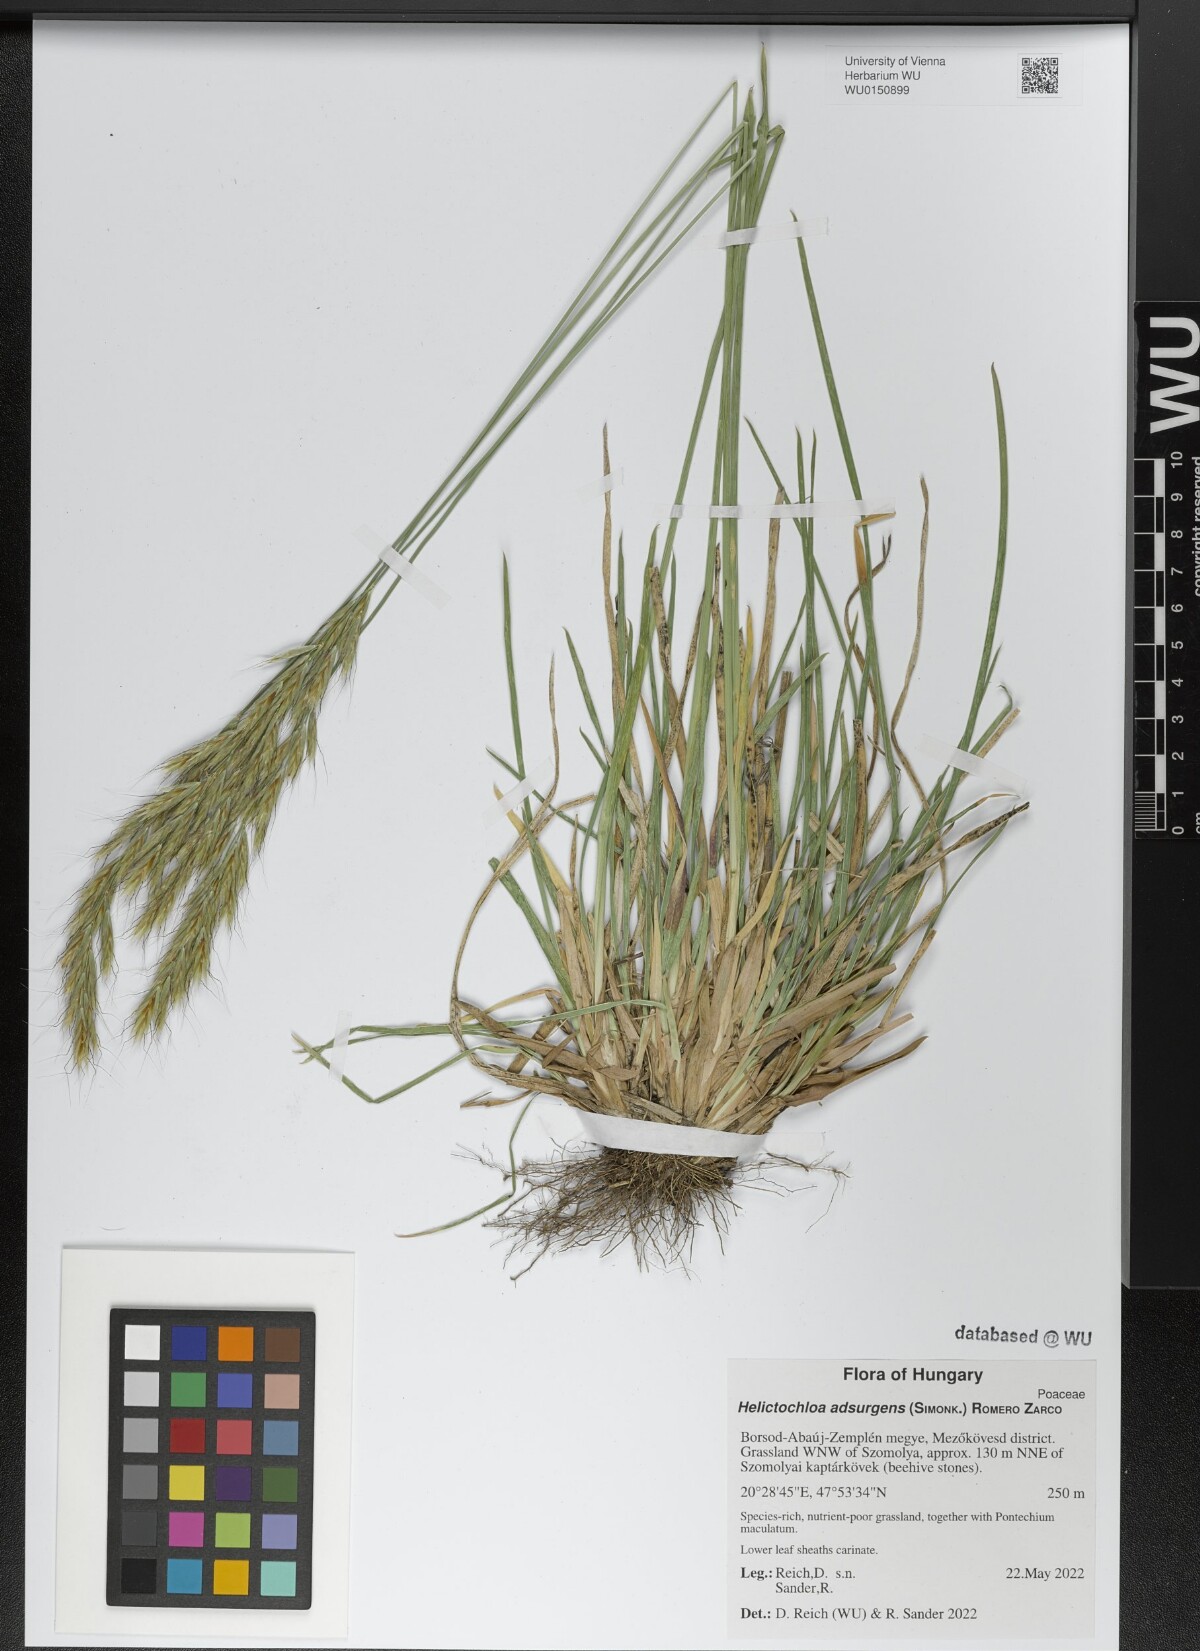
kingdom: Plantae
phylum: Tracheophyta
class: Liliopsida
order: Poales
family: Poaceae
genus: Helictochloa
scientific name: Helictochloa praeusta
